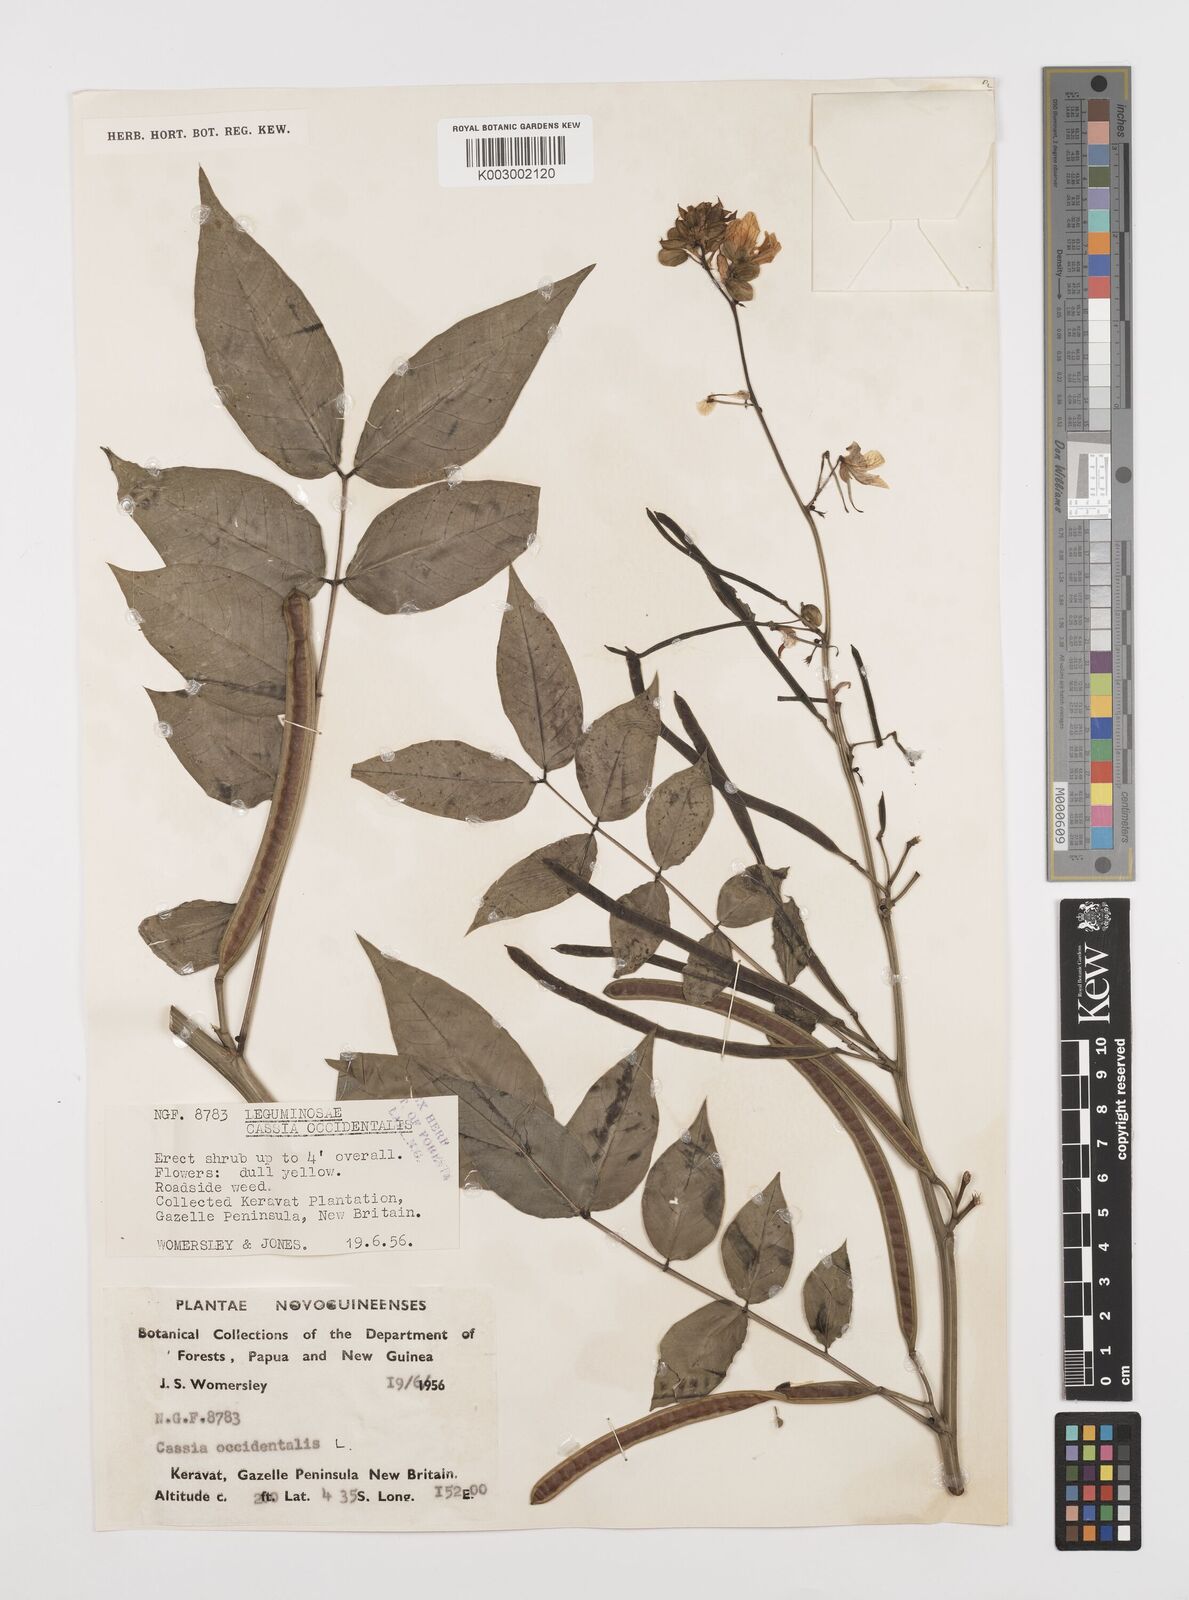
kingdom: Plantae
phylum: Tracheophyta
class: Magnoliopsida
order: Fabales
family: Fabaceae
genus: Senna
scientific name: Senna occidentalis
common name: Septicweed
